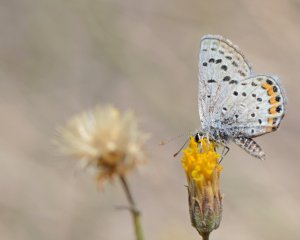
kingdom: Animalia
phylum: Arthropoda
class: Insecta
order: Lepidoptera
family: Lycaenidae
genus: Plebejus
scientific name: Plebejus acmon
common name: Acmon Blue
